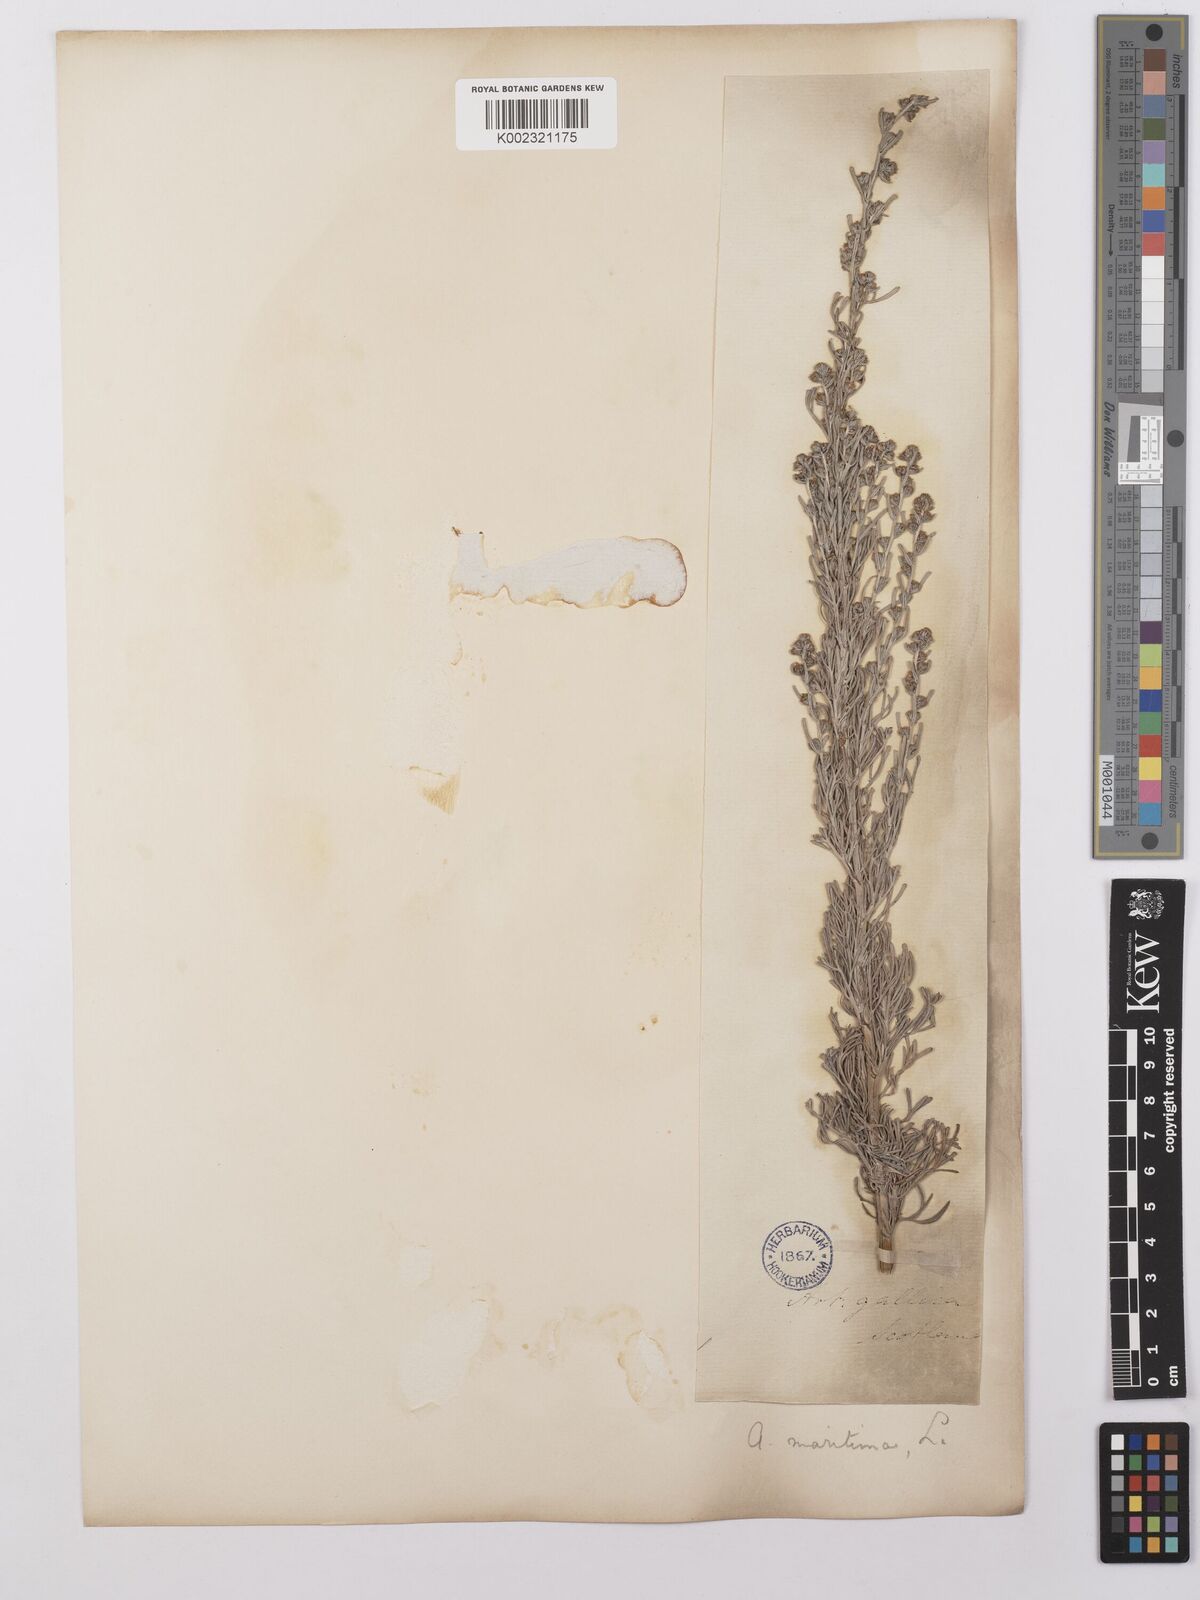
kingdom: Plantae
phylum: Tracheophyta
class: Magnoliopsida
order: Asterales
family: Asteraceae
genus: Artemisia
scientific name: Artemisia maritima
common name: Wormseed
